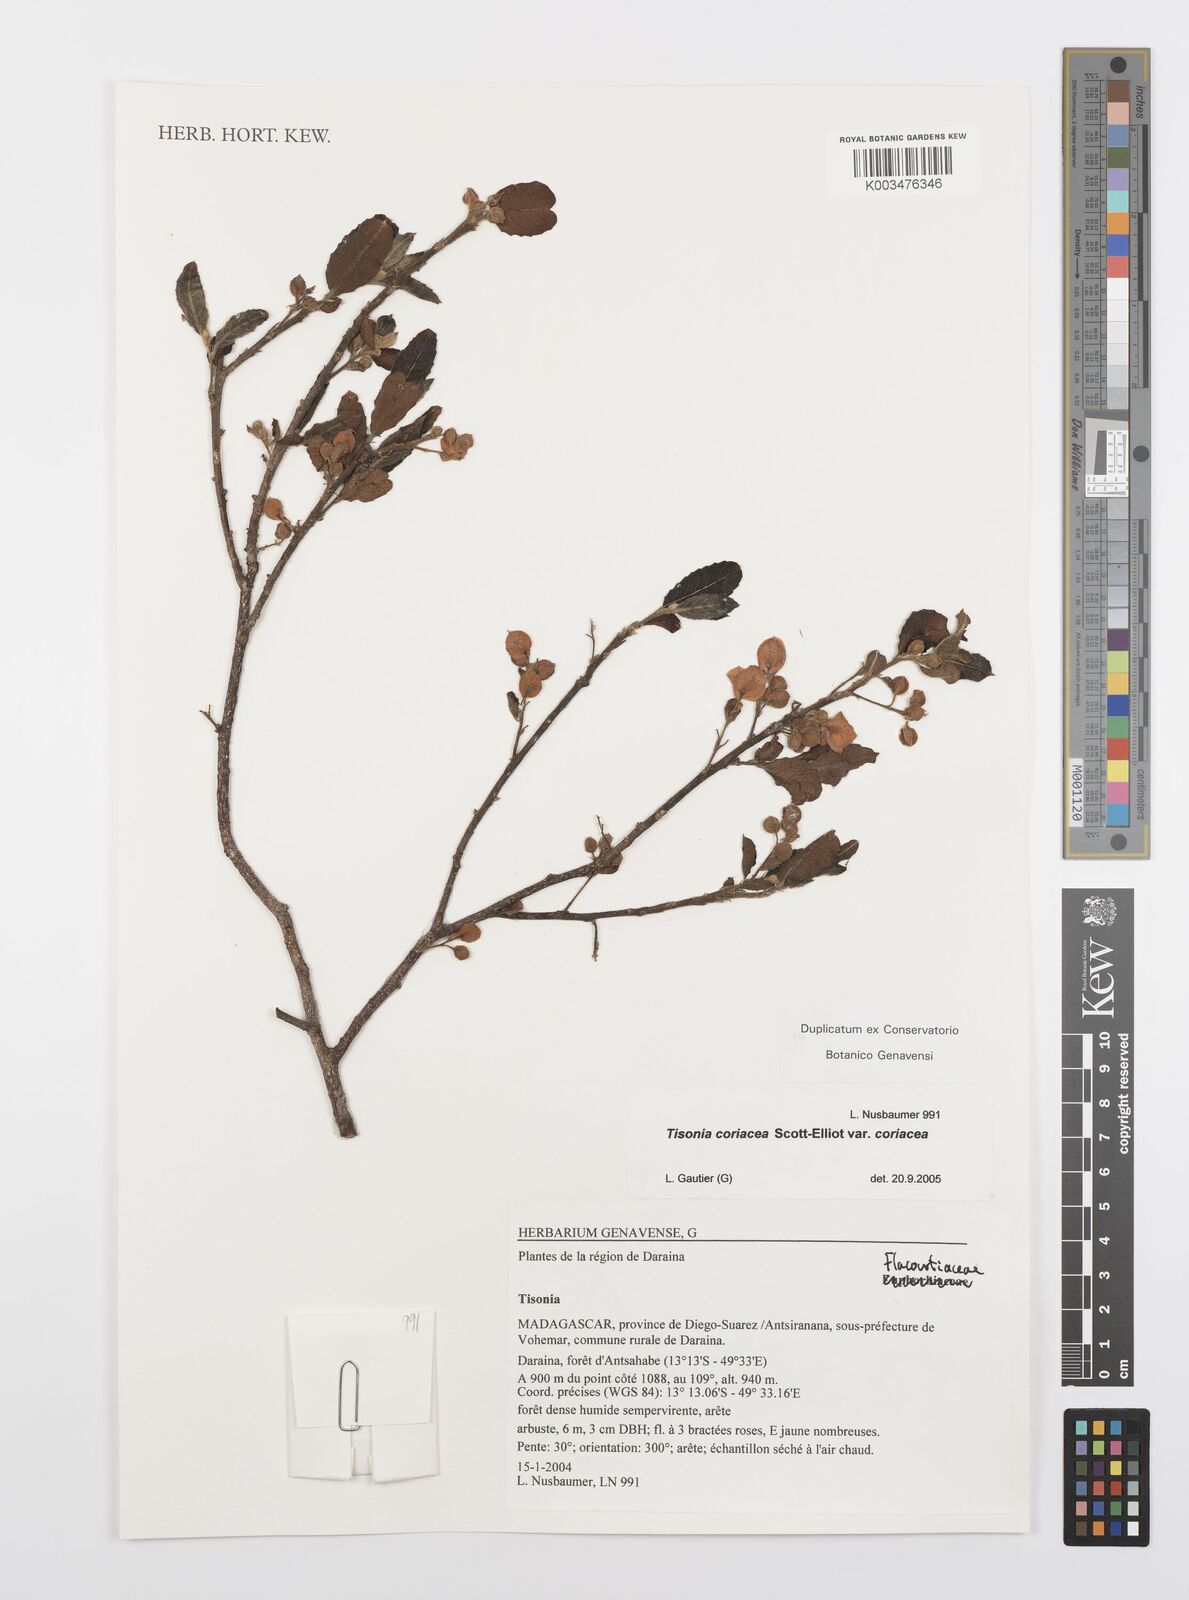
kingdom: Plantae
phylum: Tracheophyta
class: Magnoliopsida
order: Malpighiales
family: Salicaceae
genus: Tisonia
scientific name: Tisonia coriacea
